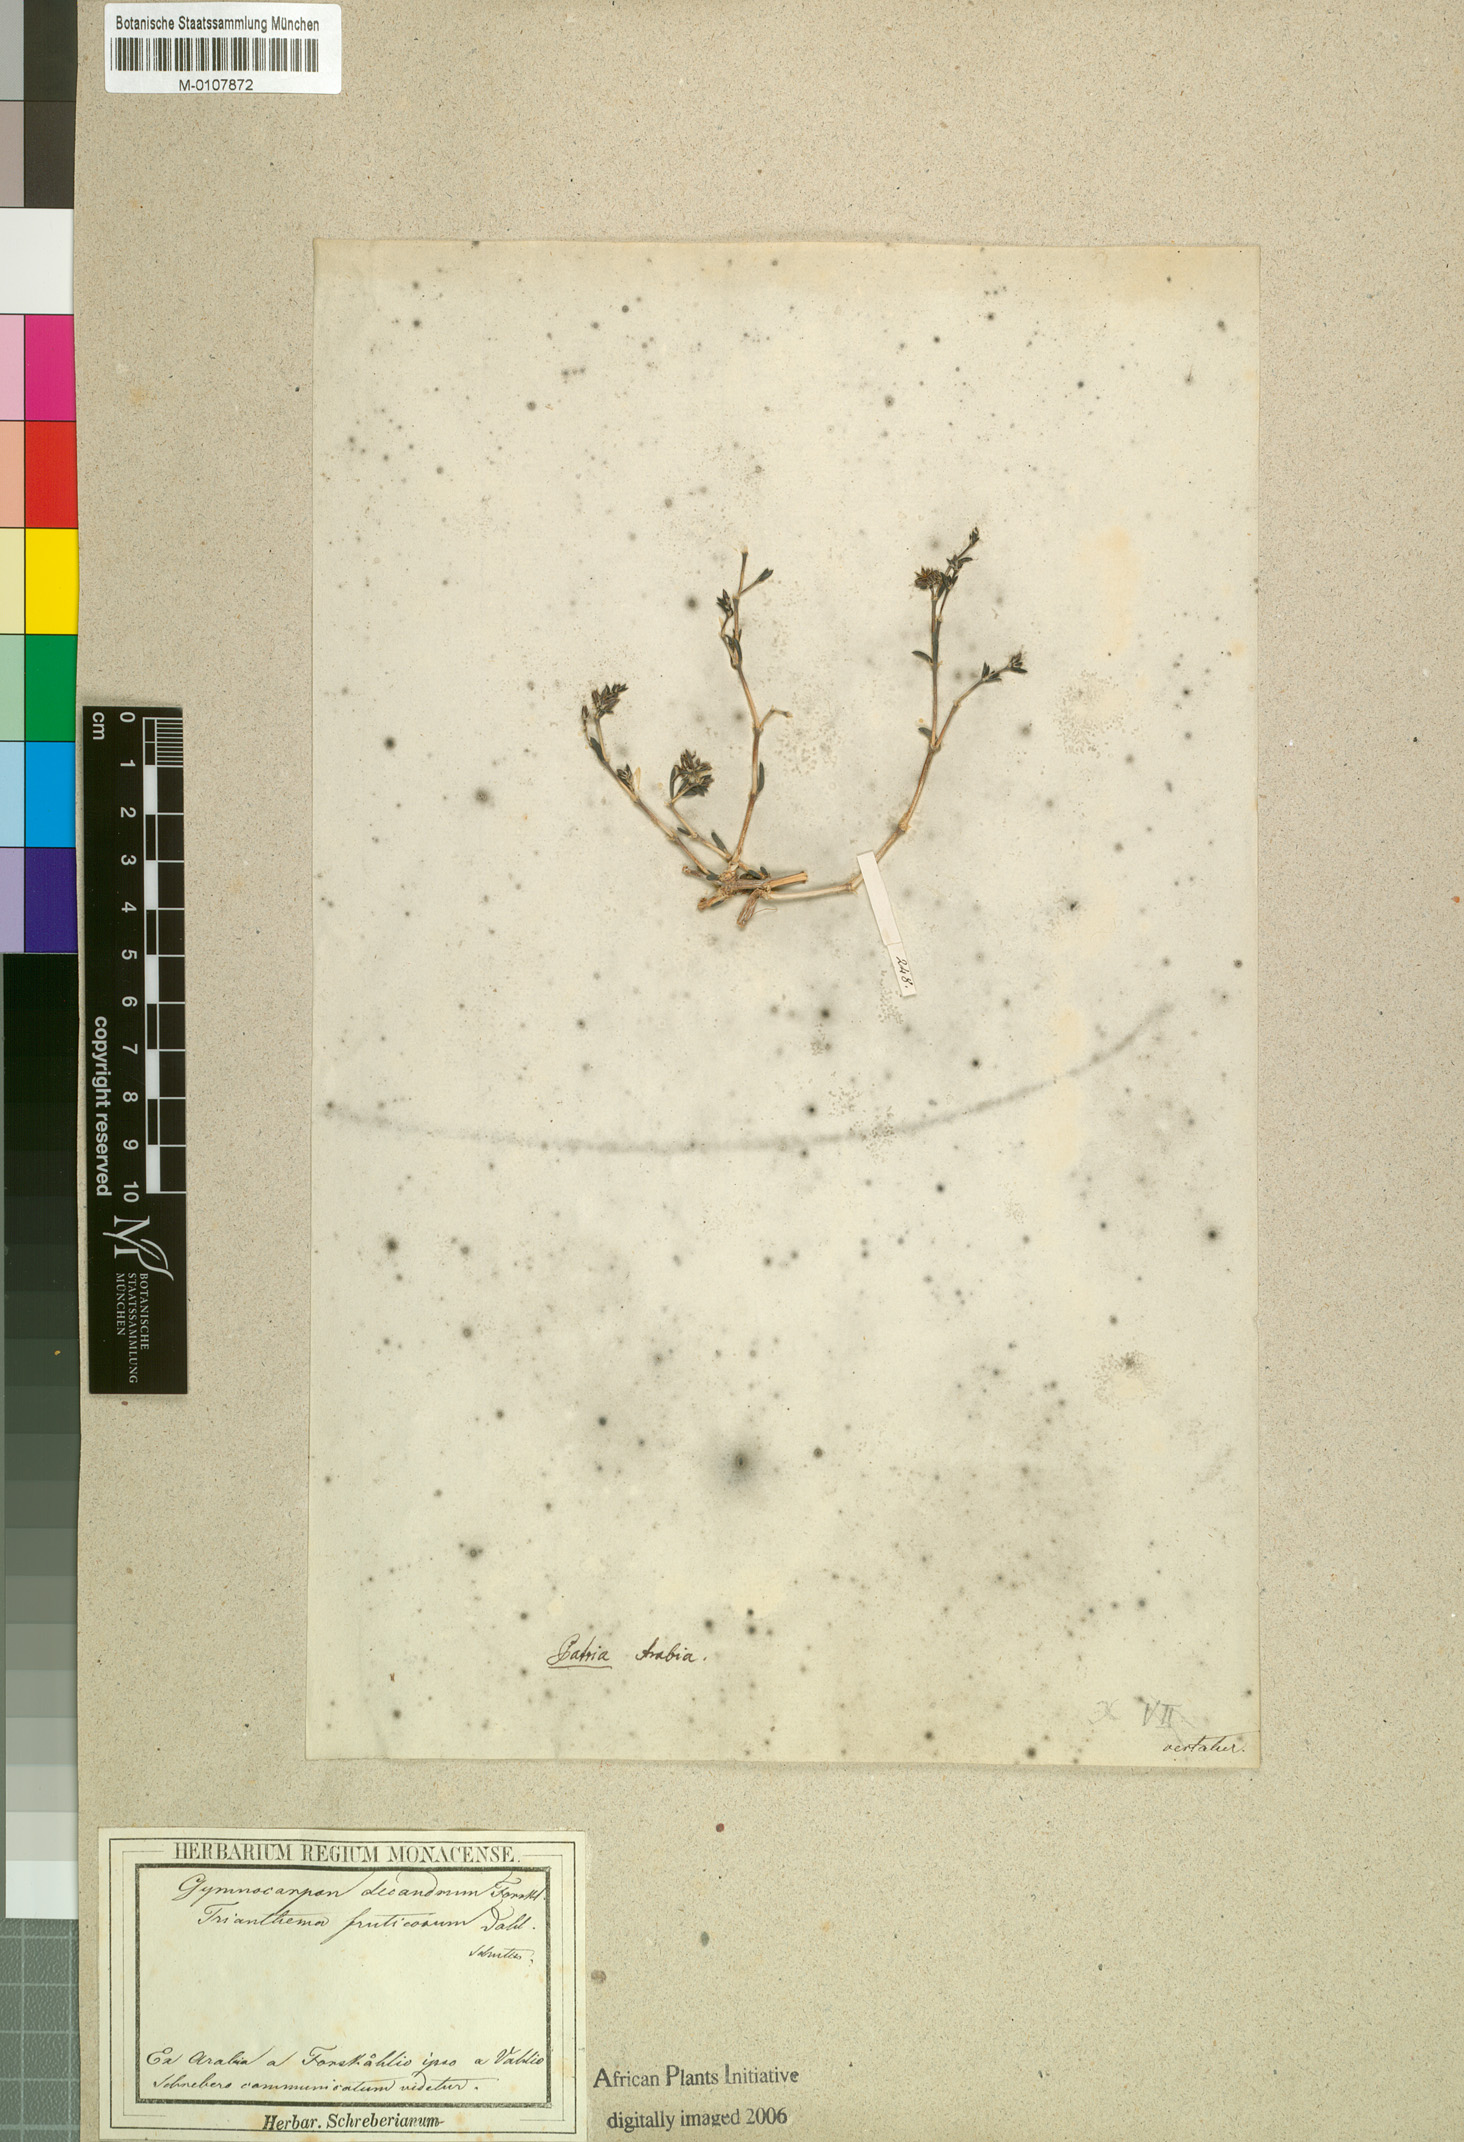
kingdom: Plantae
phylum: Tracheophyta
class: Magnoliopsida
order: Caryophyllales
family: Caryophyllaceae
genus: Gymnocarpos
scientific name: Gymnocarpos decandrus
